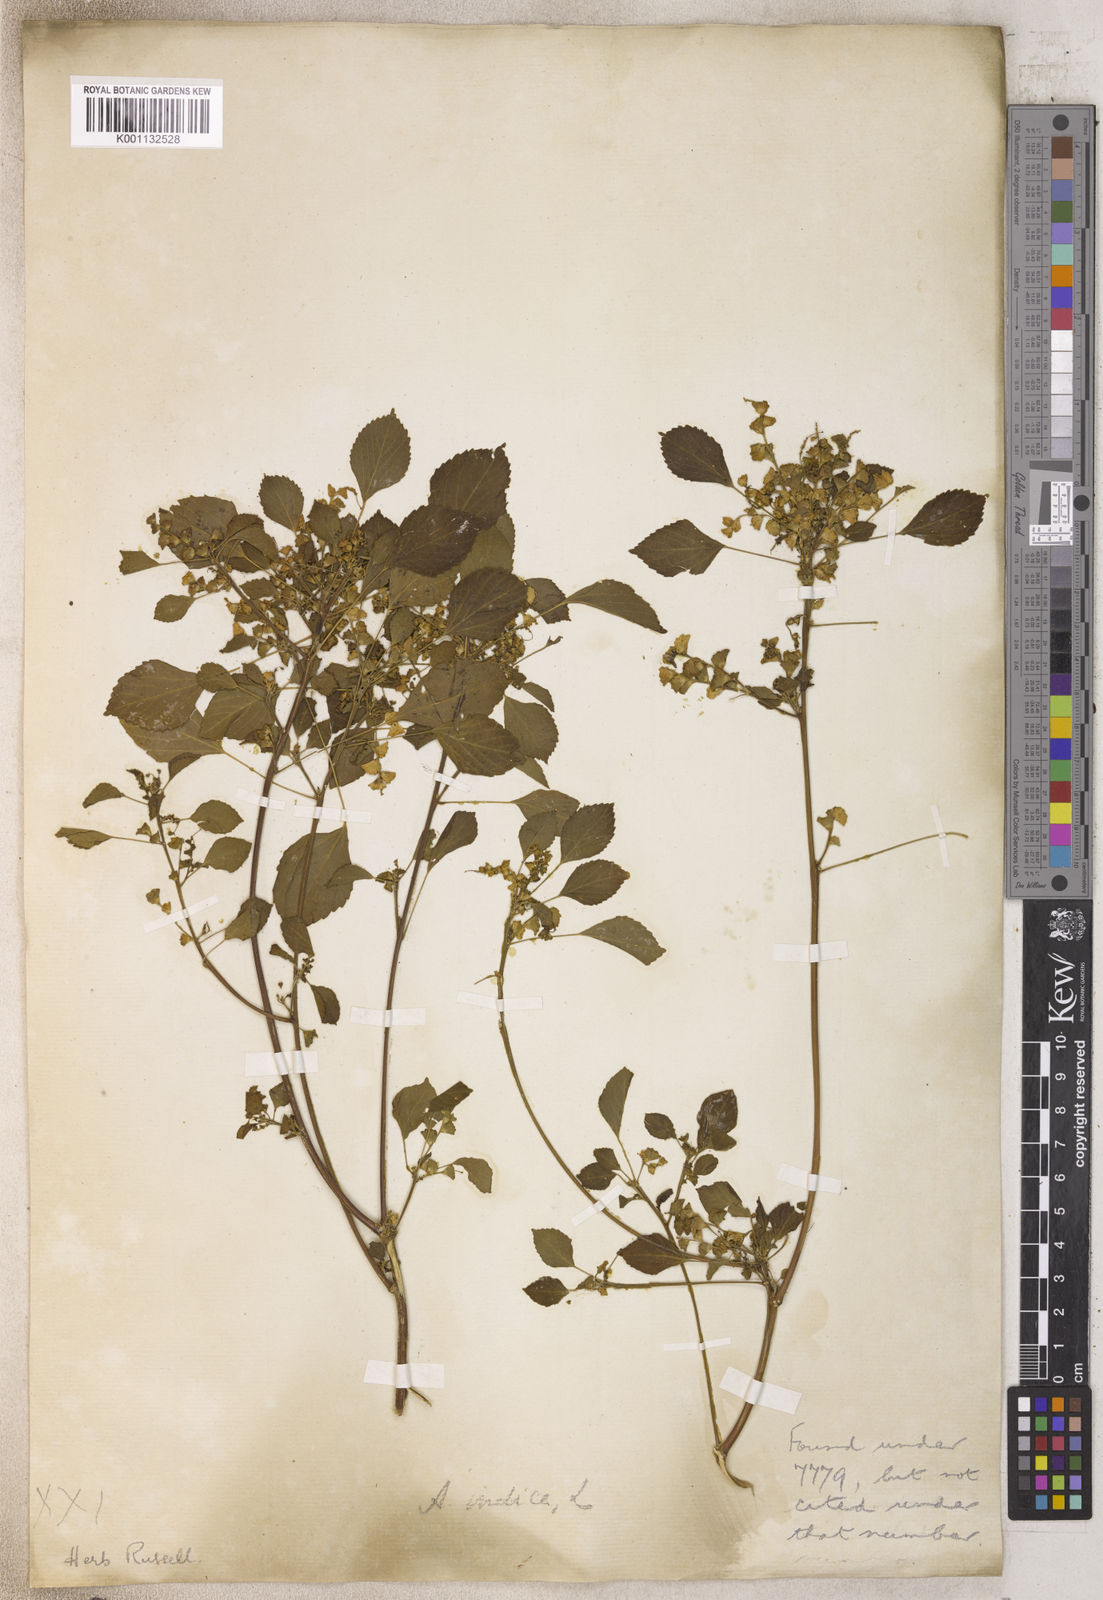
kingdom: Plantae
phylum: Tracheophyta
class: Magnoliopsida
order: Malpighiales
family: Euphorbiaceae
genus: Acalypha
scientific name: Acalypha
